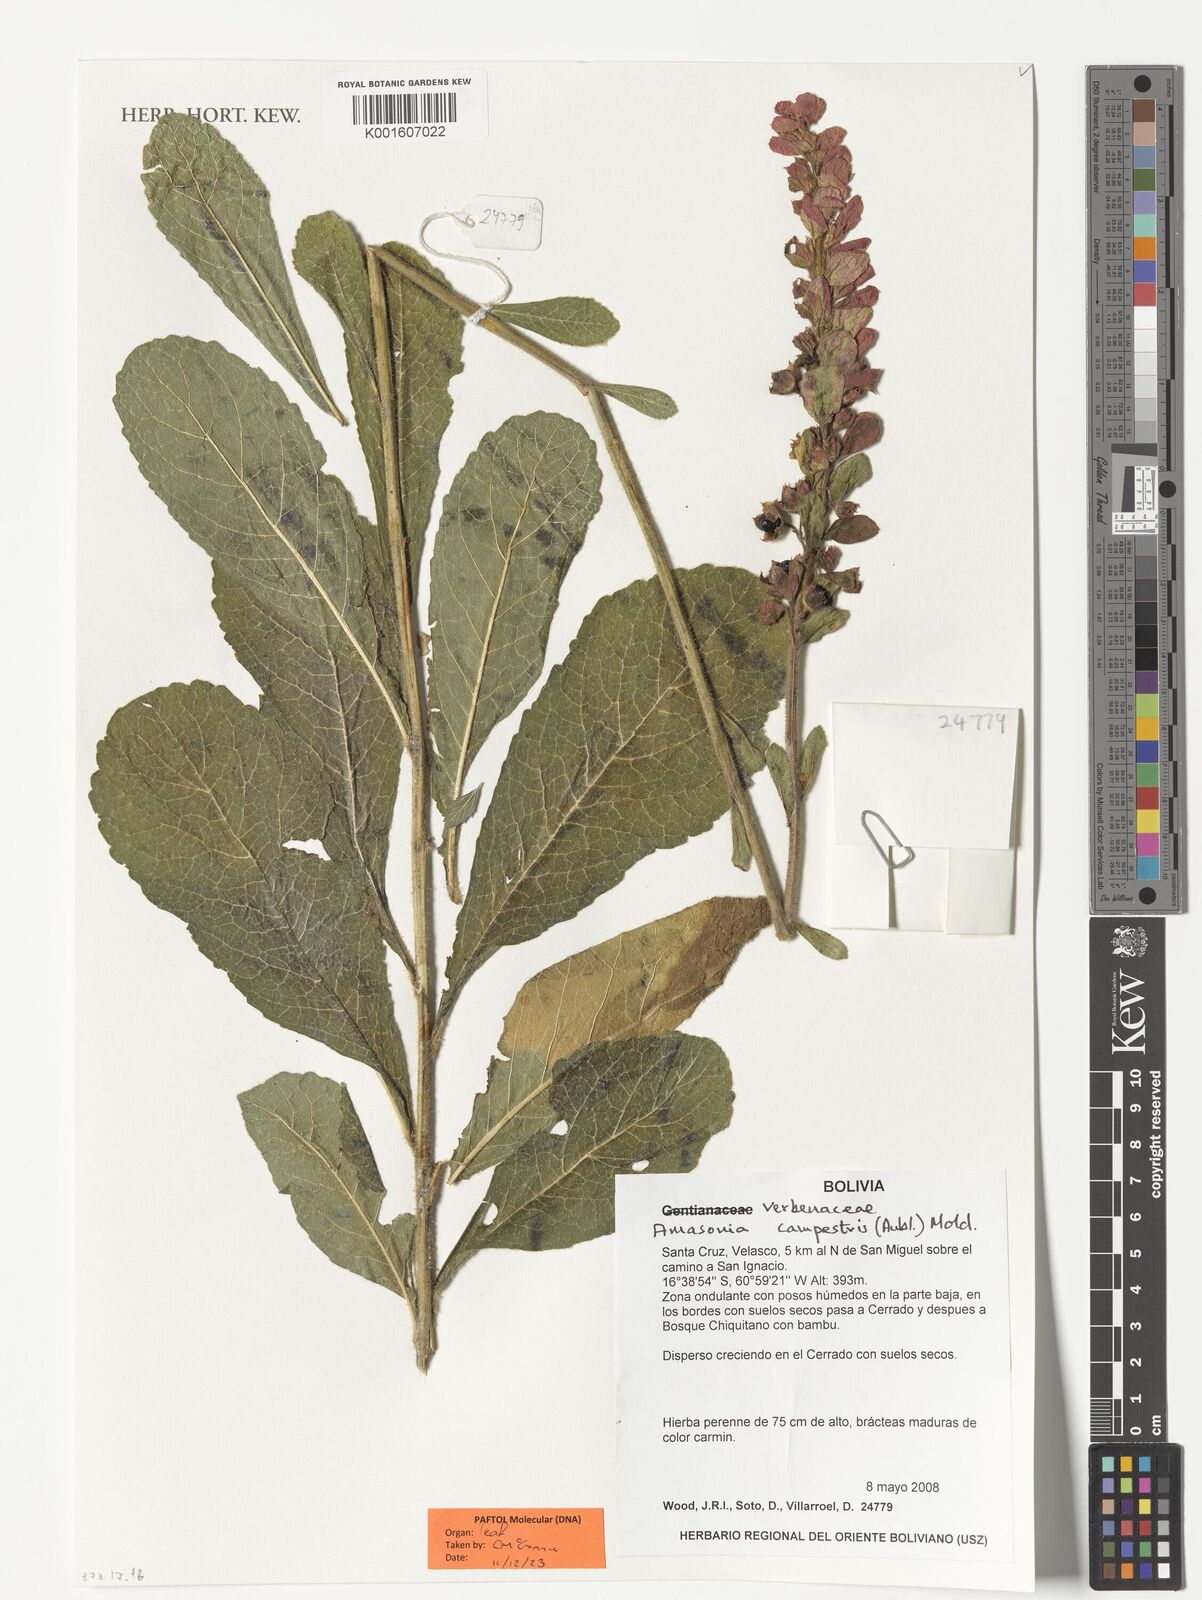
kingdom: Plantae
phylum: Tracheophyta
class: Magnoliopsida
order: Lamiales
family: Lamiaceae
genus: Amasonia
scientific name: Amasonia campestris
